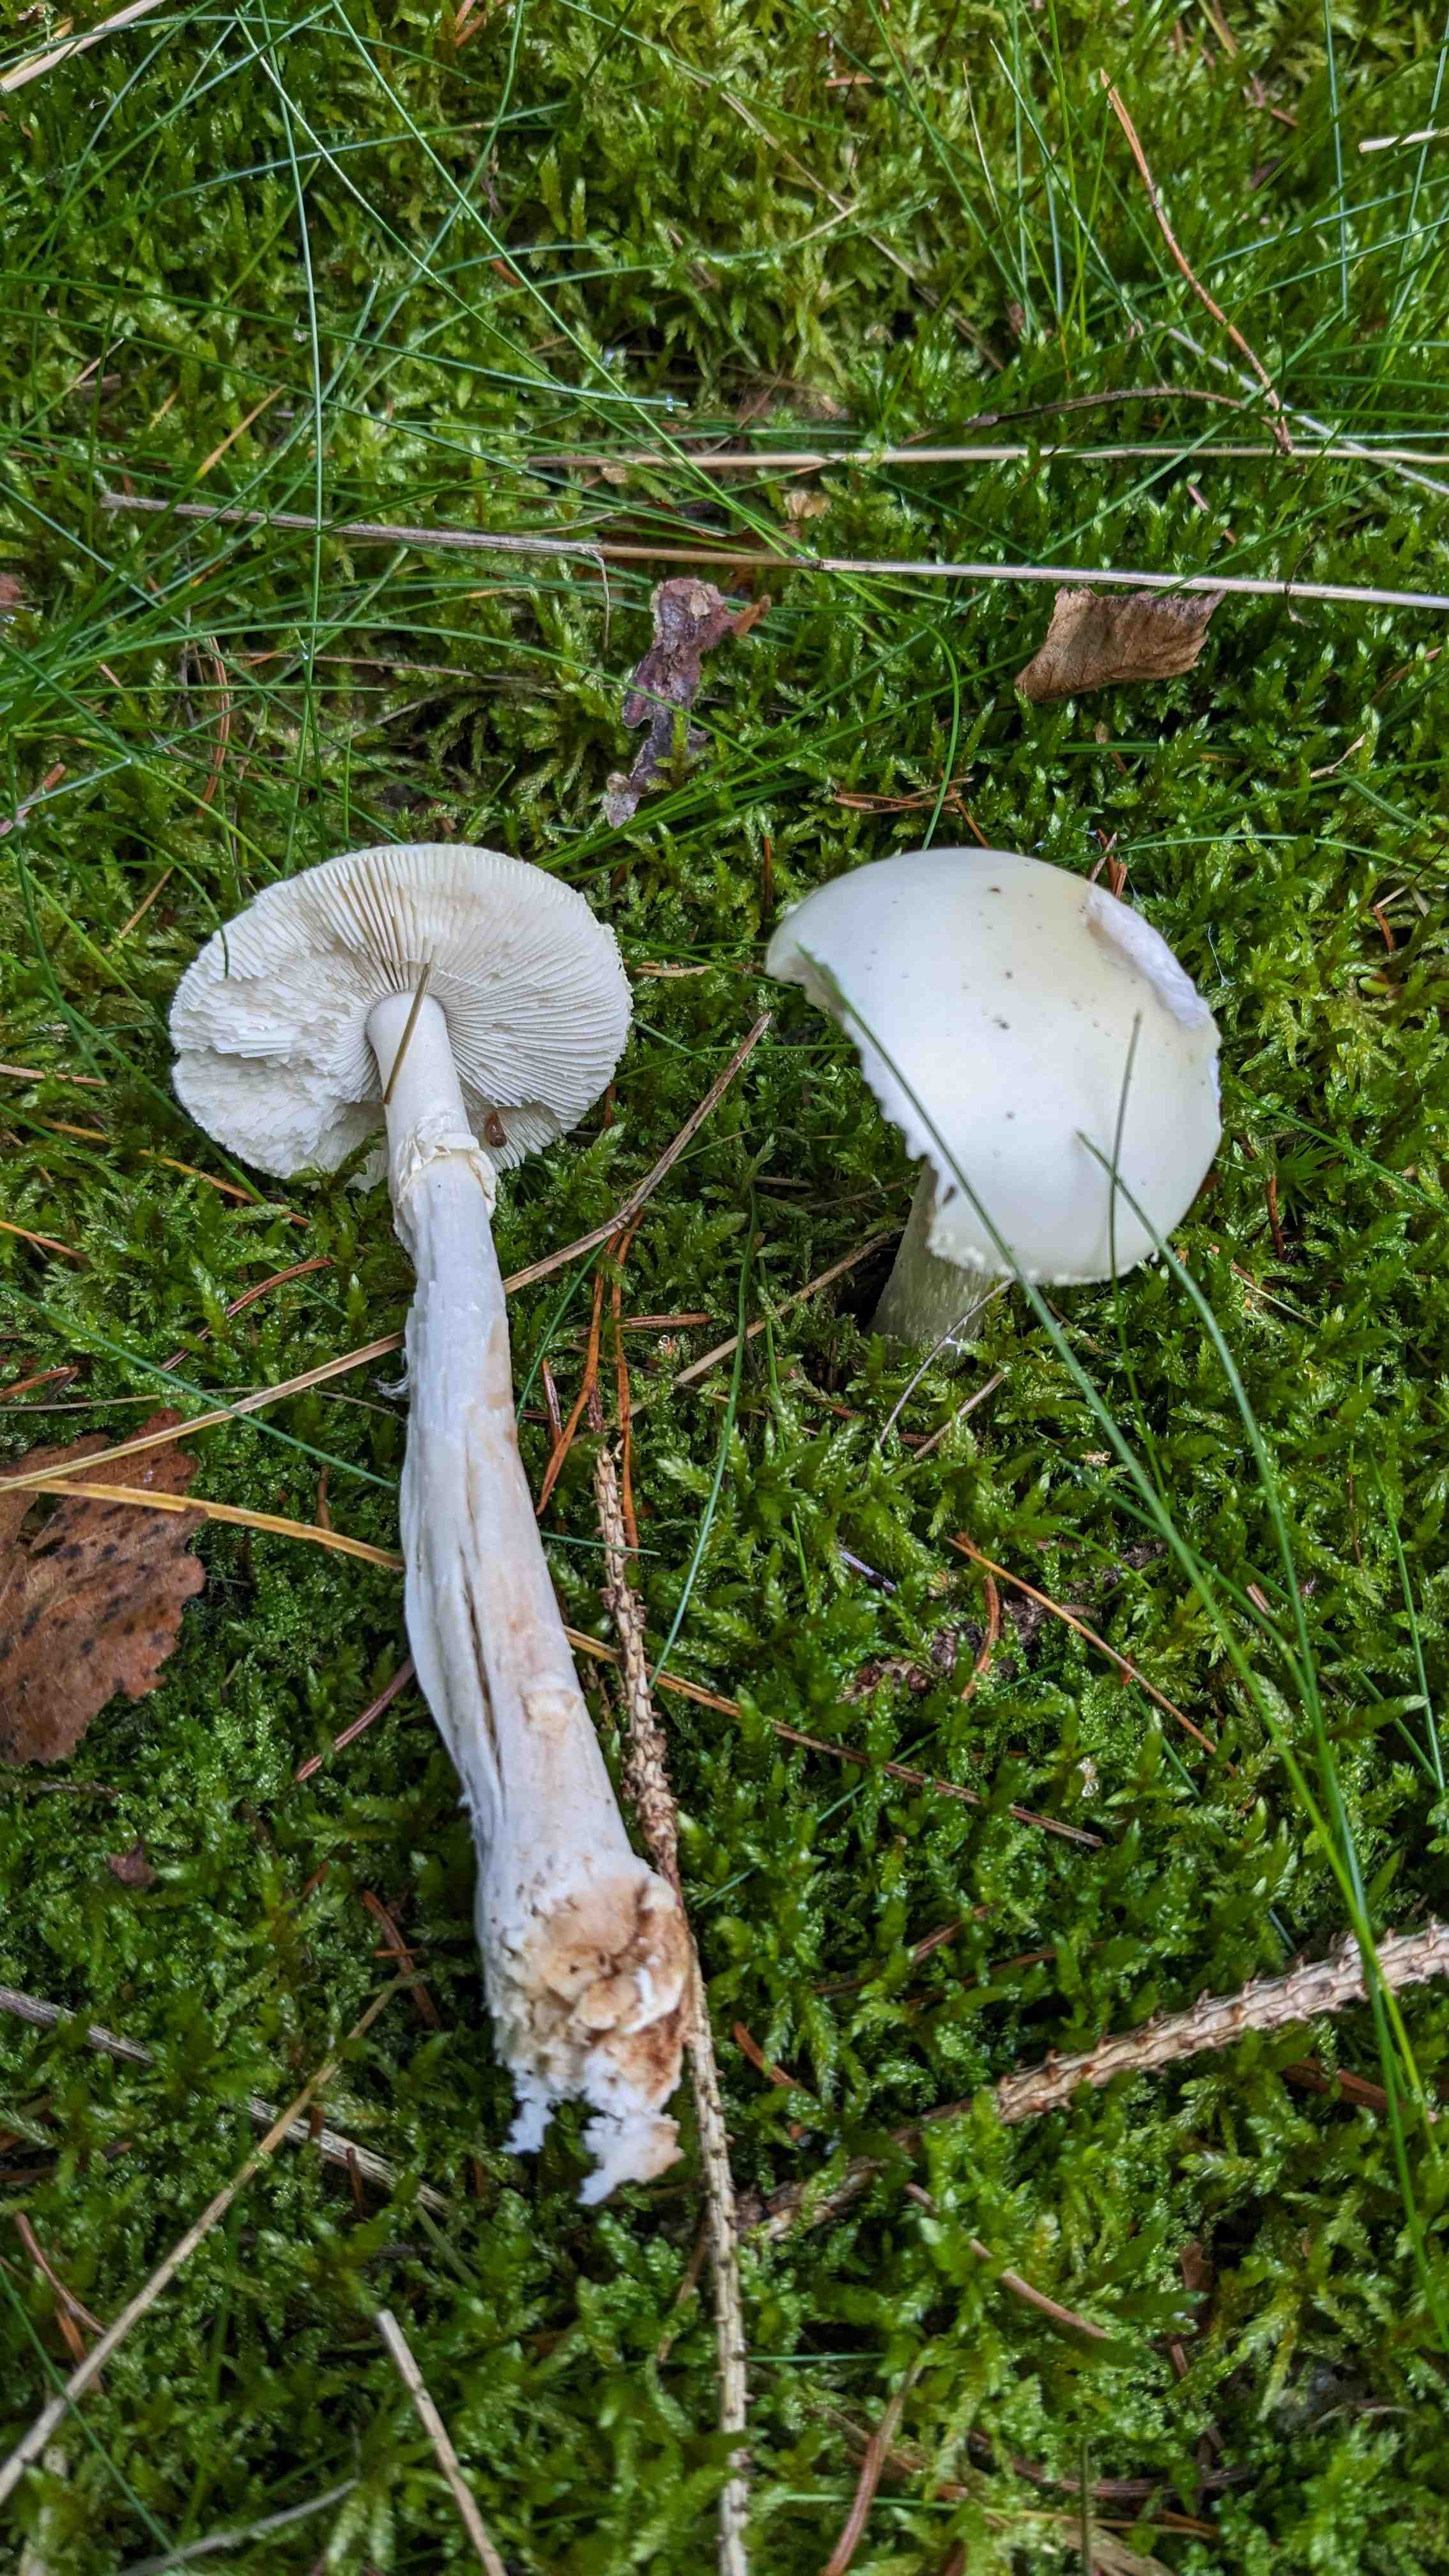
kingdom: Fungi
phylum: Basidiomycota
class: Agaricomycetes
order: Agaricales
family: Amanitaceae
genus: Amanita
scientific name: Amanita citrina
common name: kugleknoldet fluesvamp
